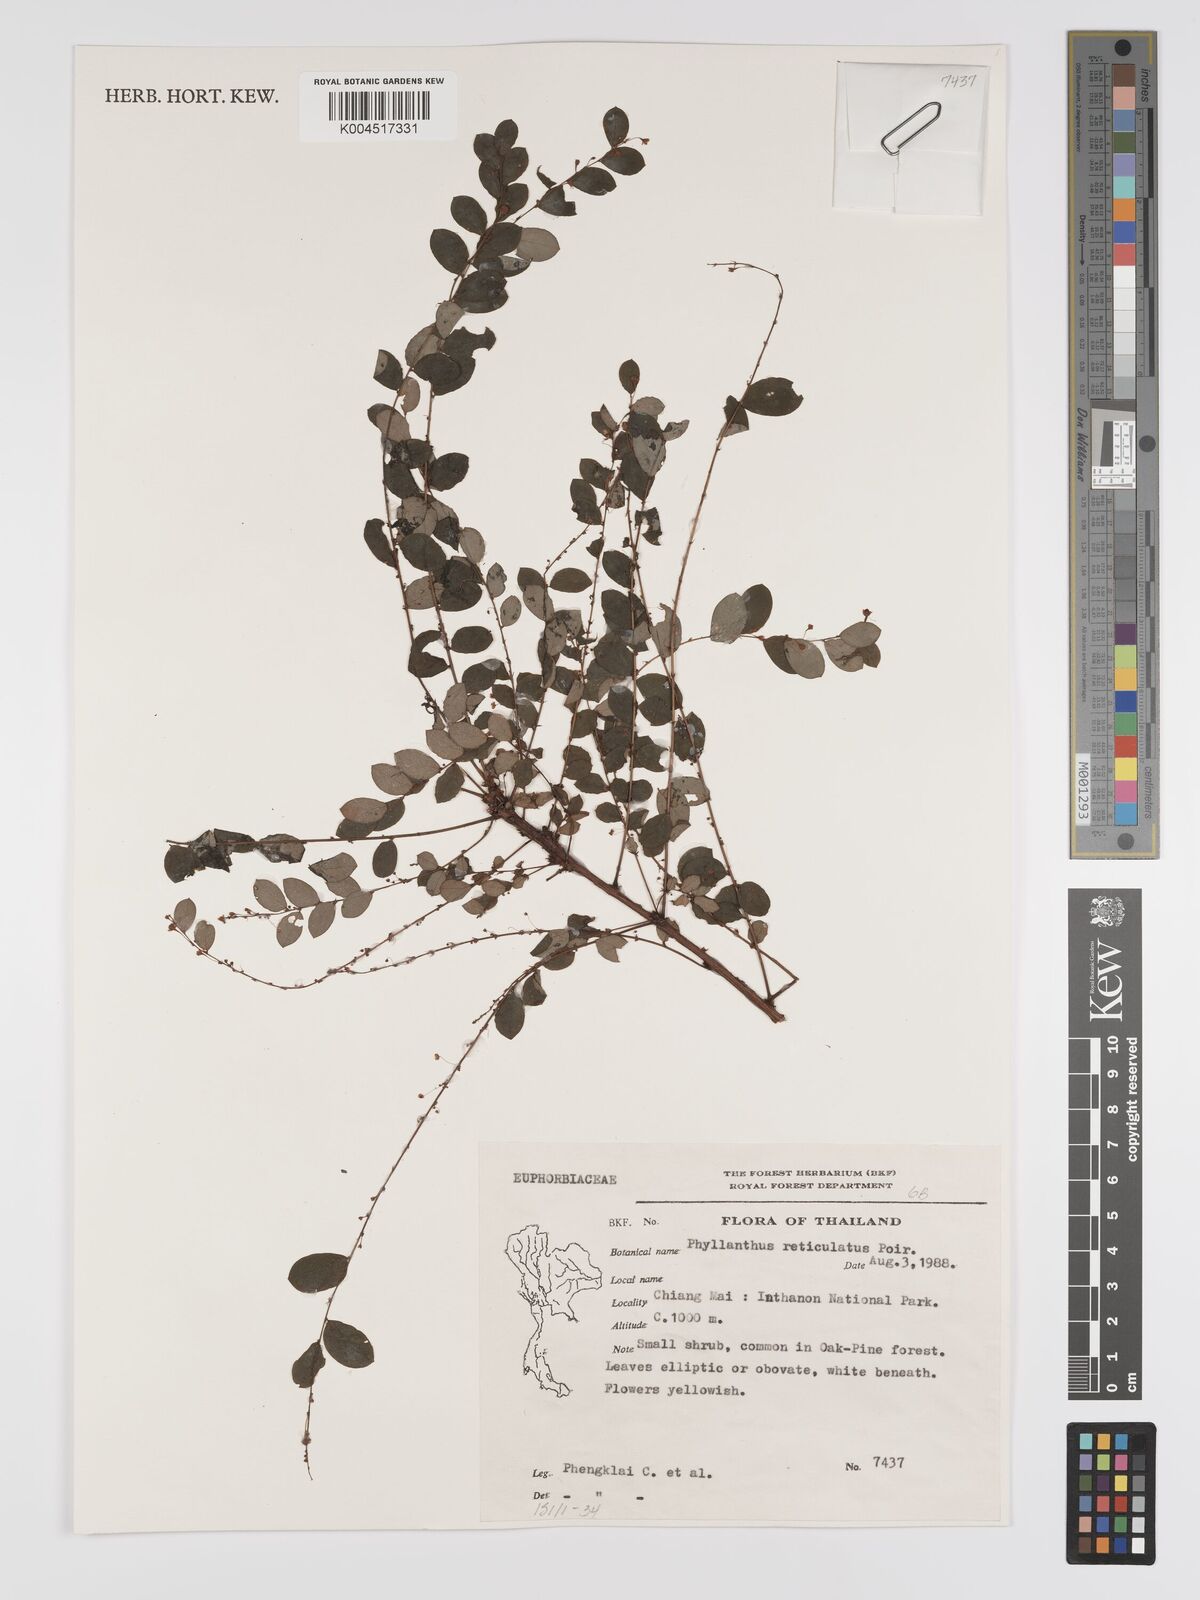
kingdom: Plantae
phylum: Tracheophyta
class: Magnoliopsida
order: Malpighiales
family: Phyllanthaceae
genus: Phyllanthus
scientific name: Phyllanthus reticulatus
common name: Potato bush
